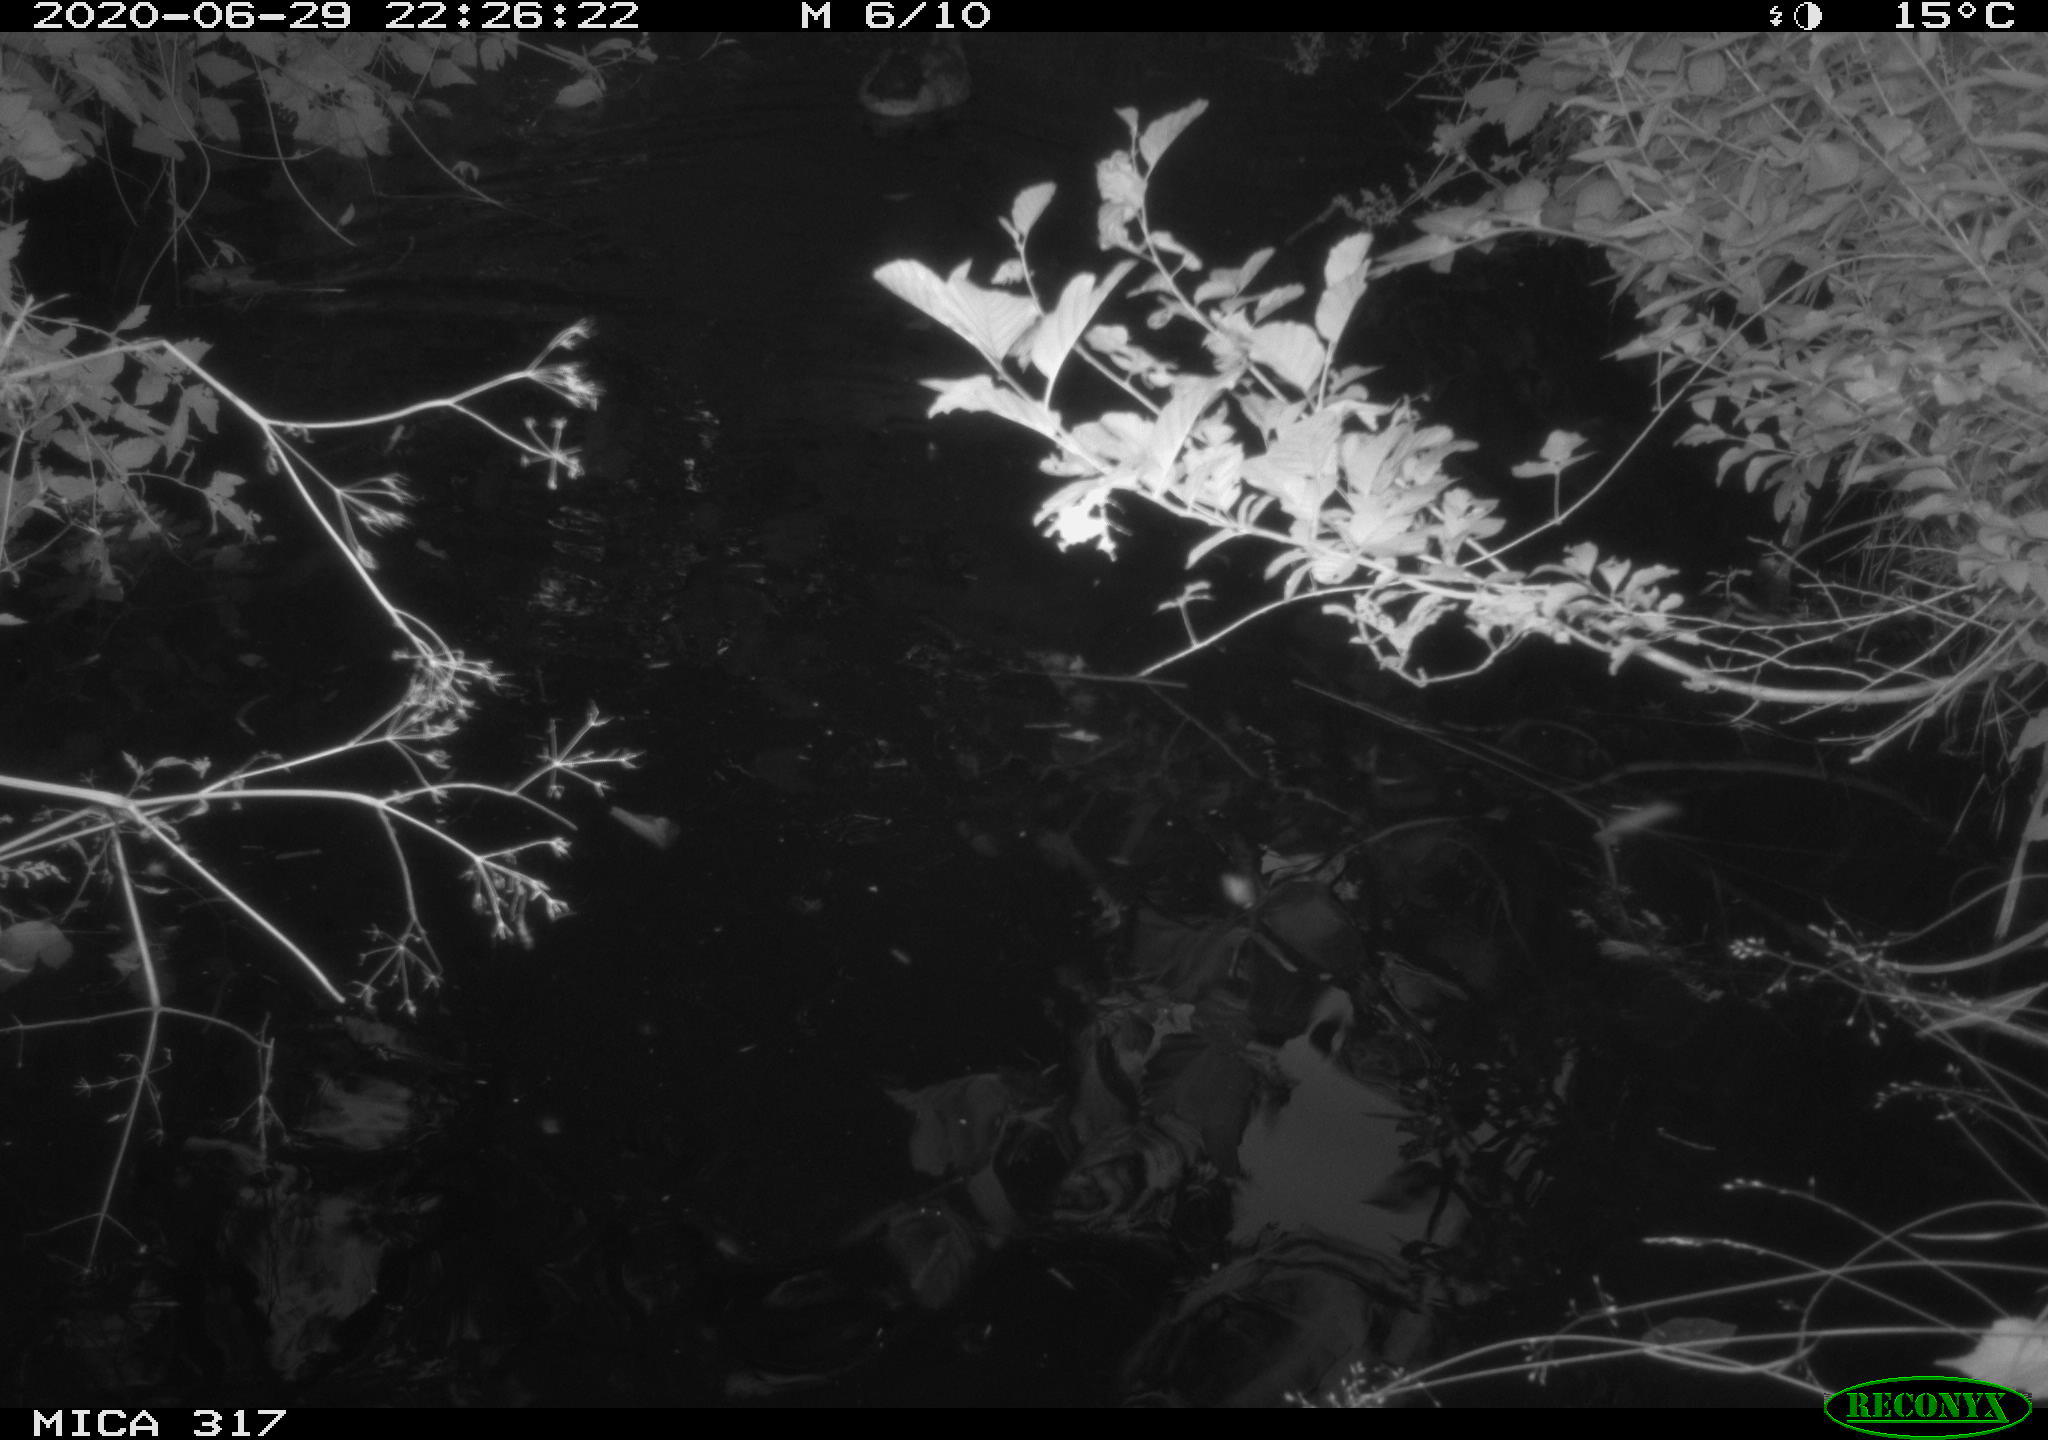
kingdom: Animalia
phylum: Chordata
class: Aves
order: Anseriformes
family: Anatidae
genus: Anas
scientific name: Anas platyrhynchos
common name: Mallard
